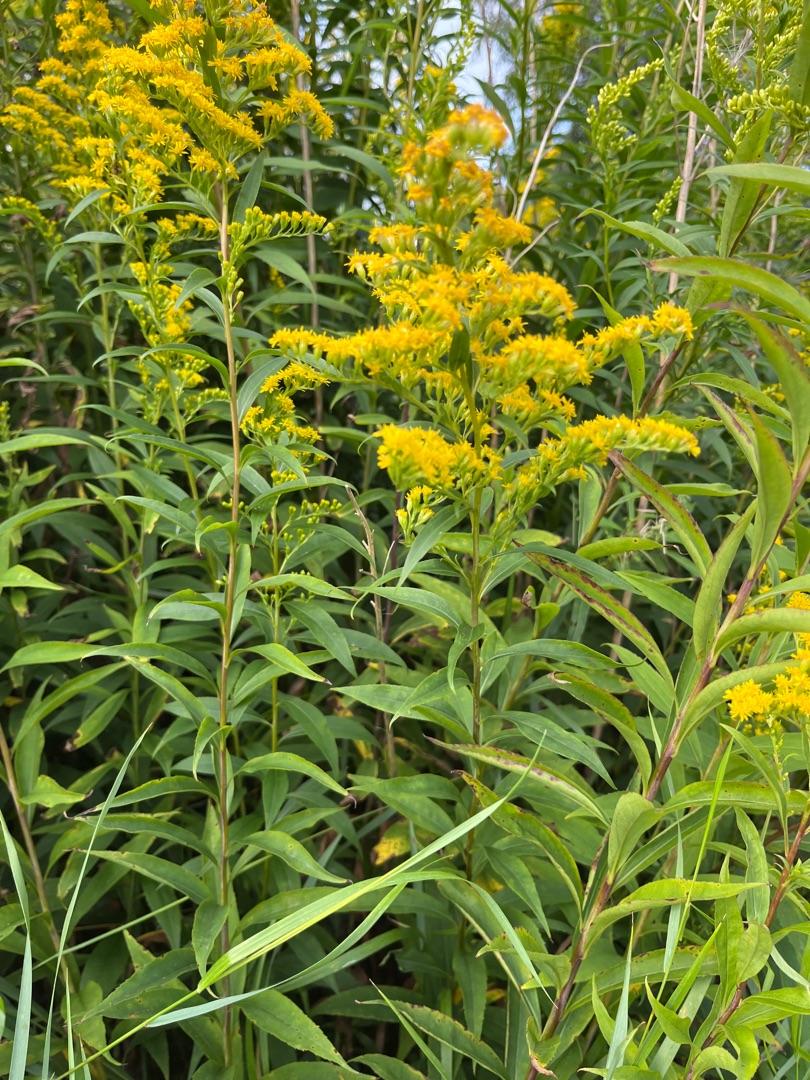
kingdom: Plantae
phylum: Tracheophyta
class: Magnoliopsida
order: Asterales
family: Asteraceae
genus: Solidago
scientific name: Solidago gigantea
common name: Sildig gyldenris
